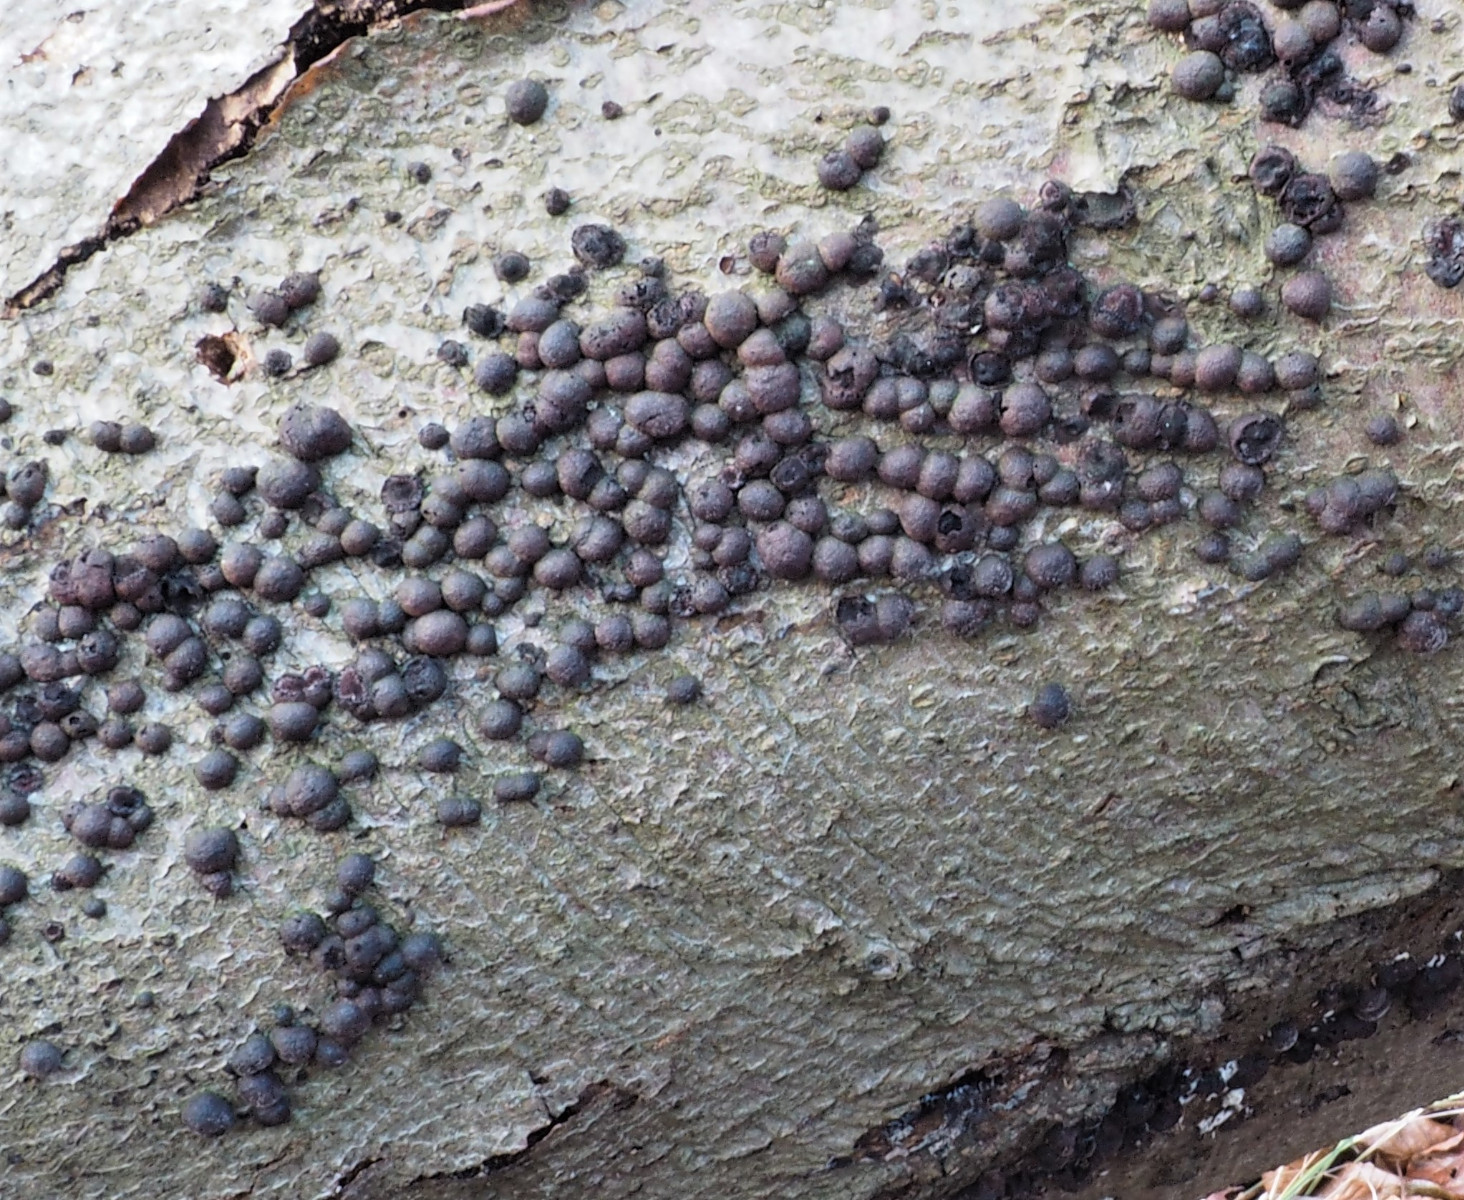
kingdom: Fungi
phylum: Ascomycota
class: Sordariomycetes
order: Xylariales
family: Hypoxylaceae
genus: Hypoxylon
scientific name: Hypoxylon fragiforme
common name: kuljordbær
